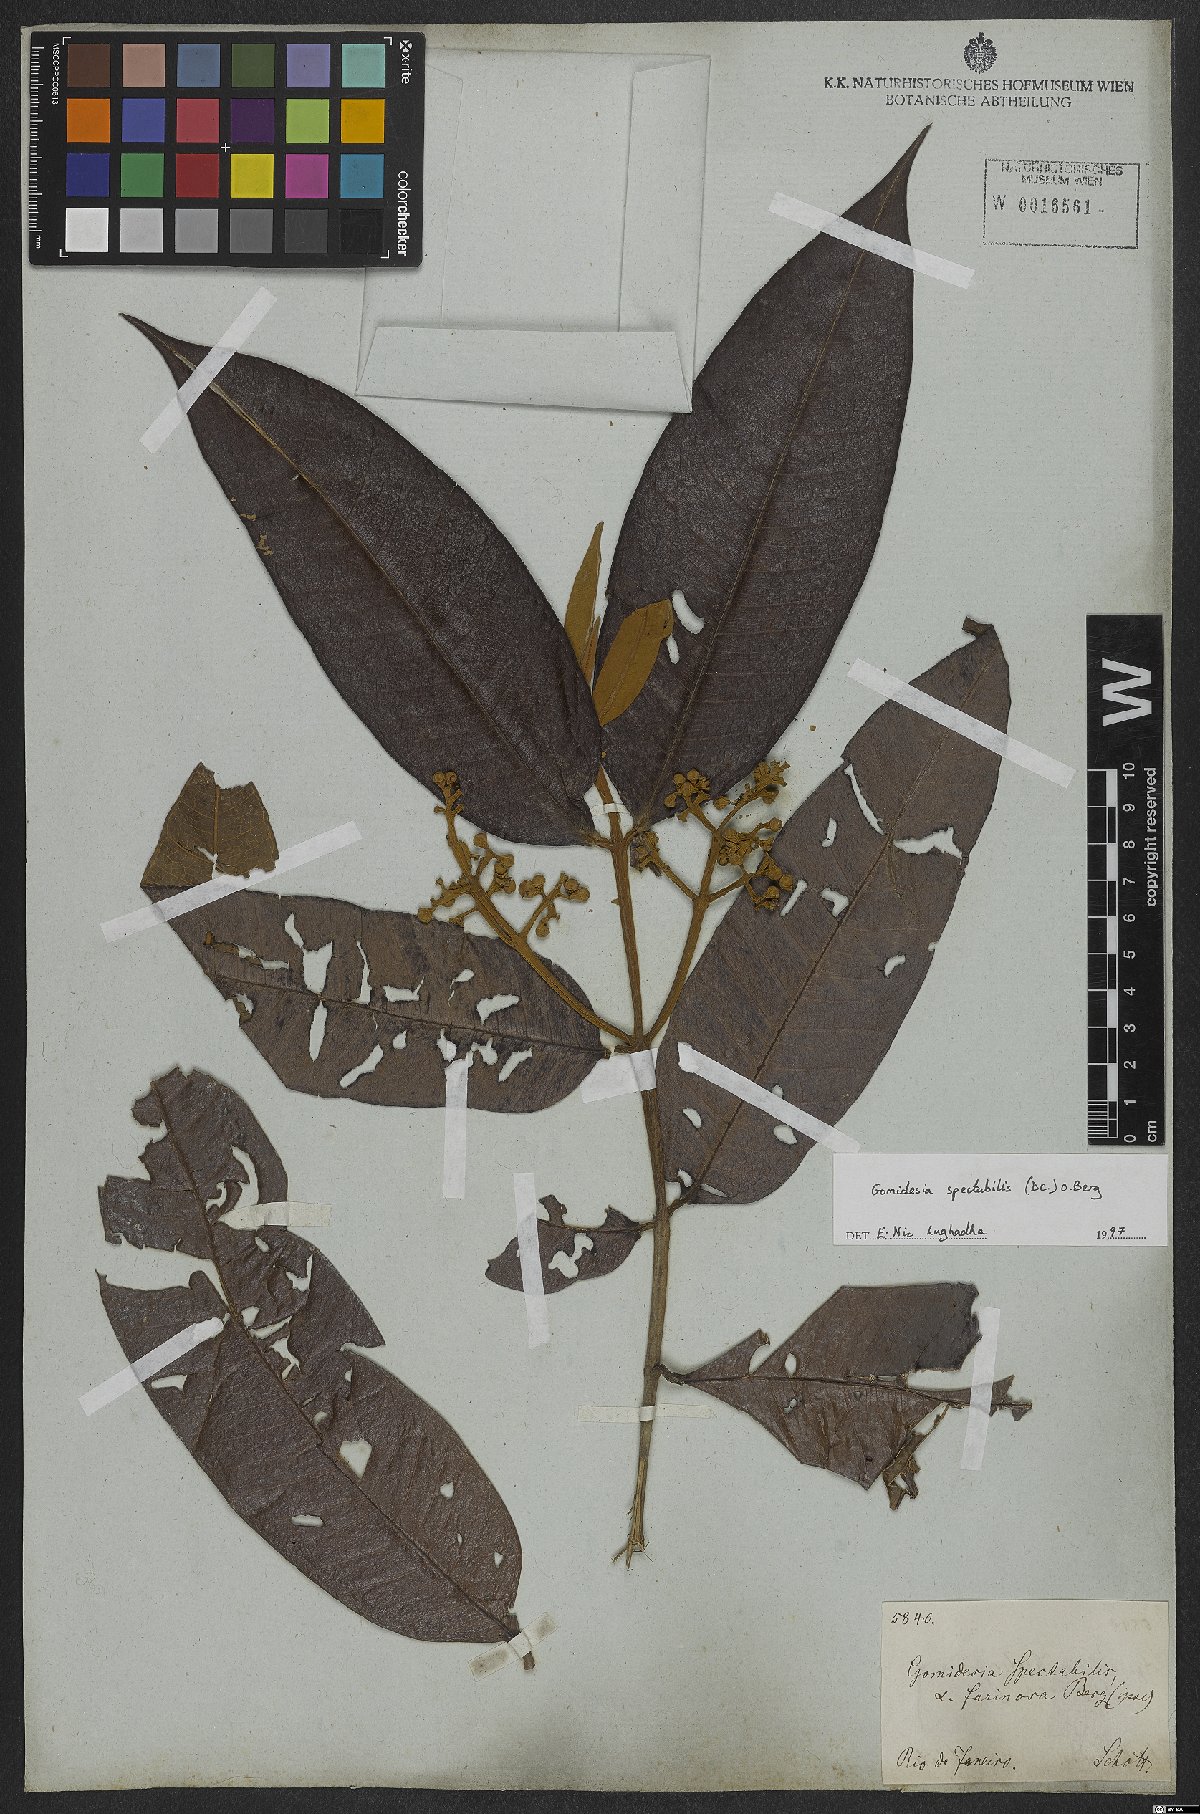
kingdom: Plantae
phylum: Tracheophyta
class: Magnoliopsida
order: Myrtales
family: Myrtaceae
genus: Myrcia
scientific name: Myrcia spectabilis
